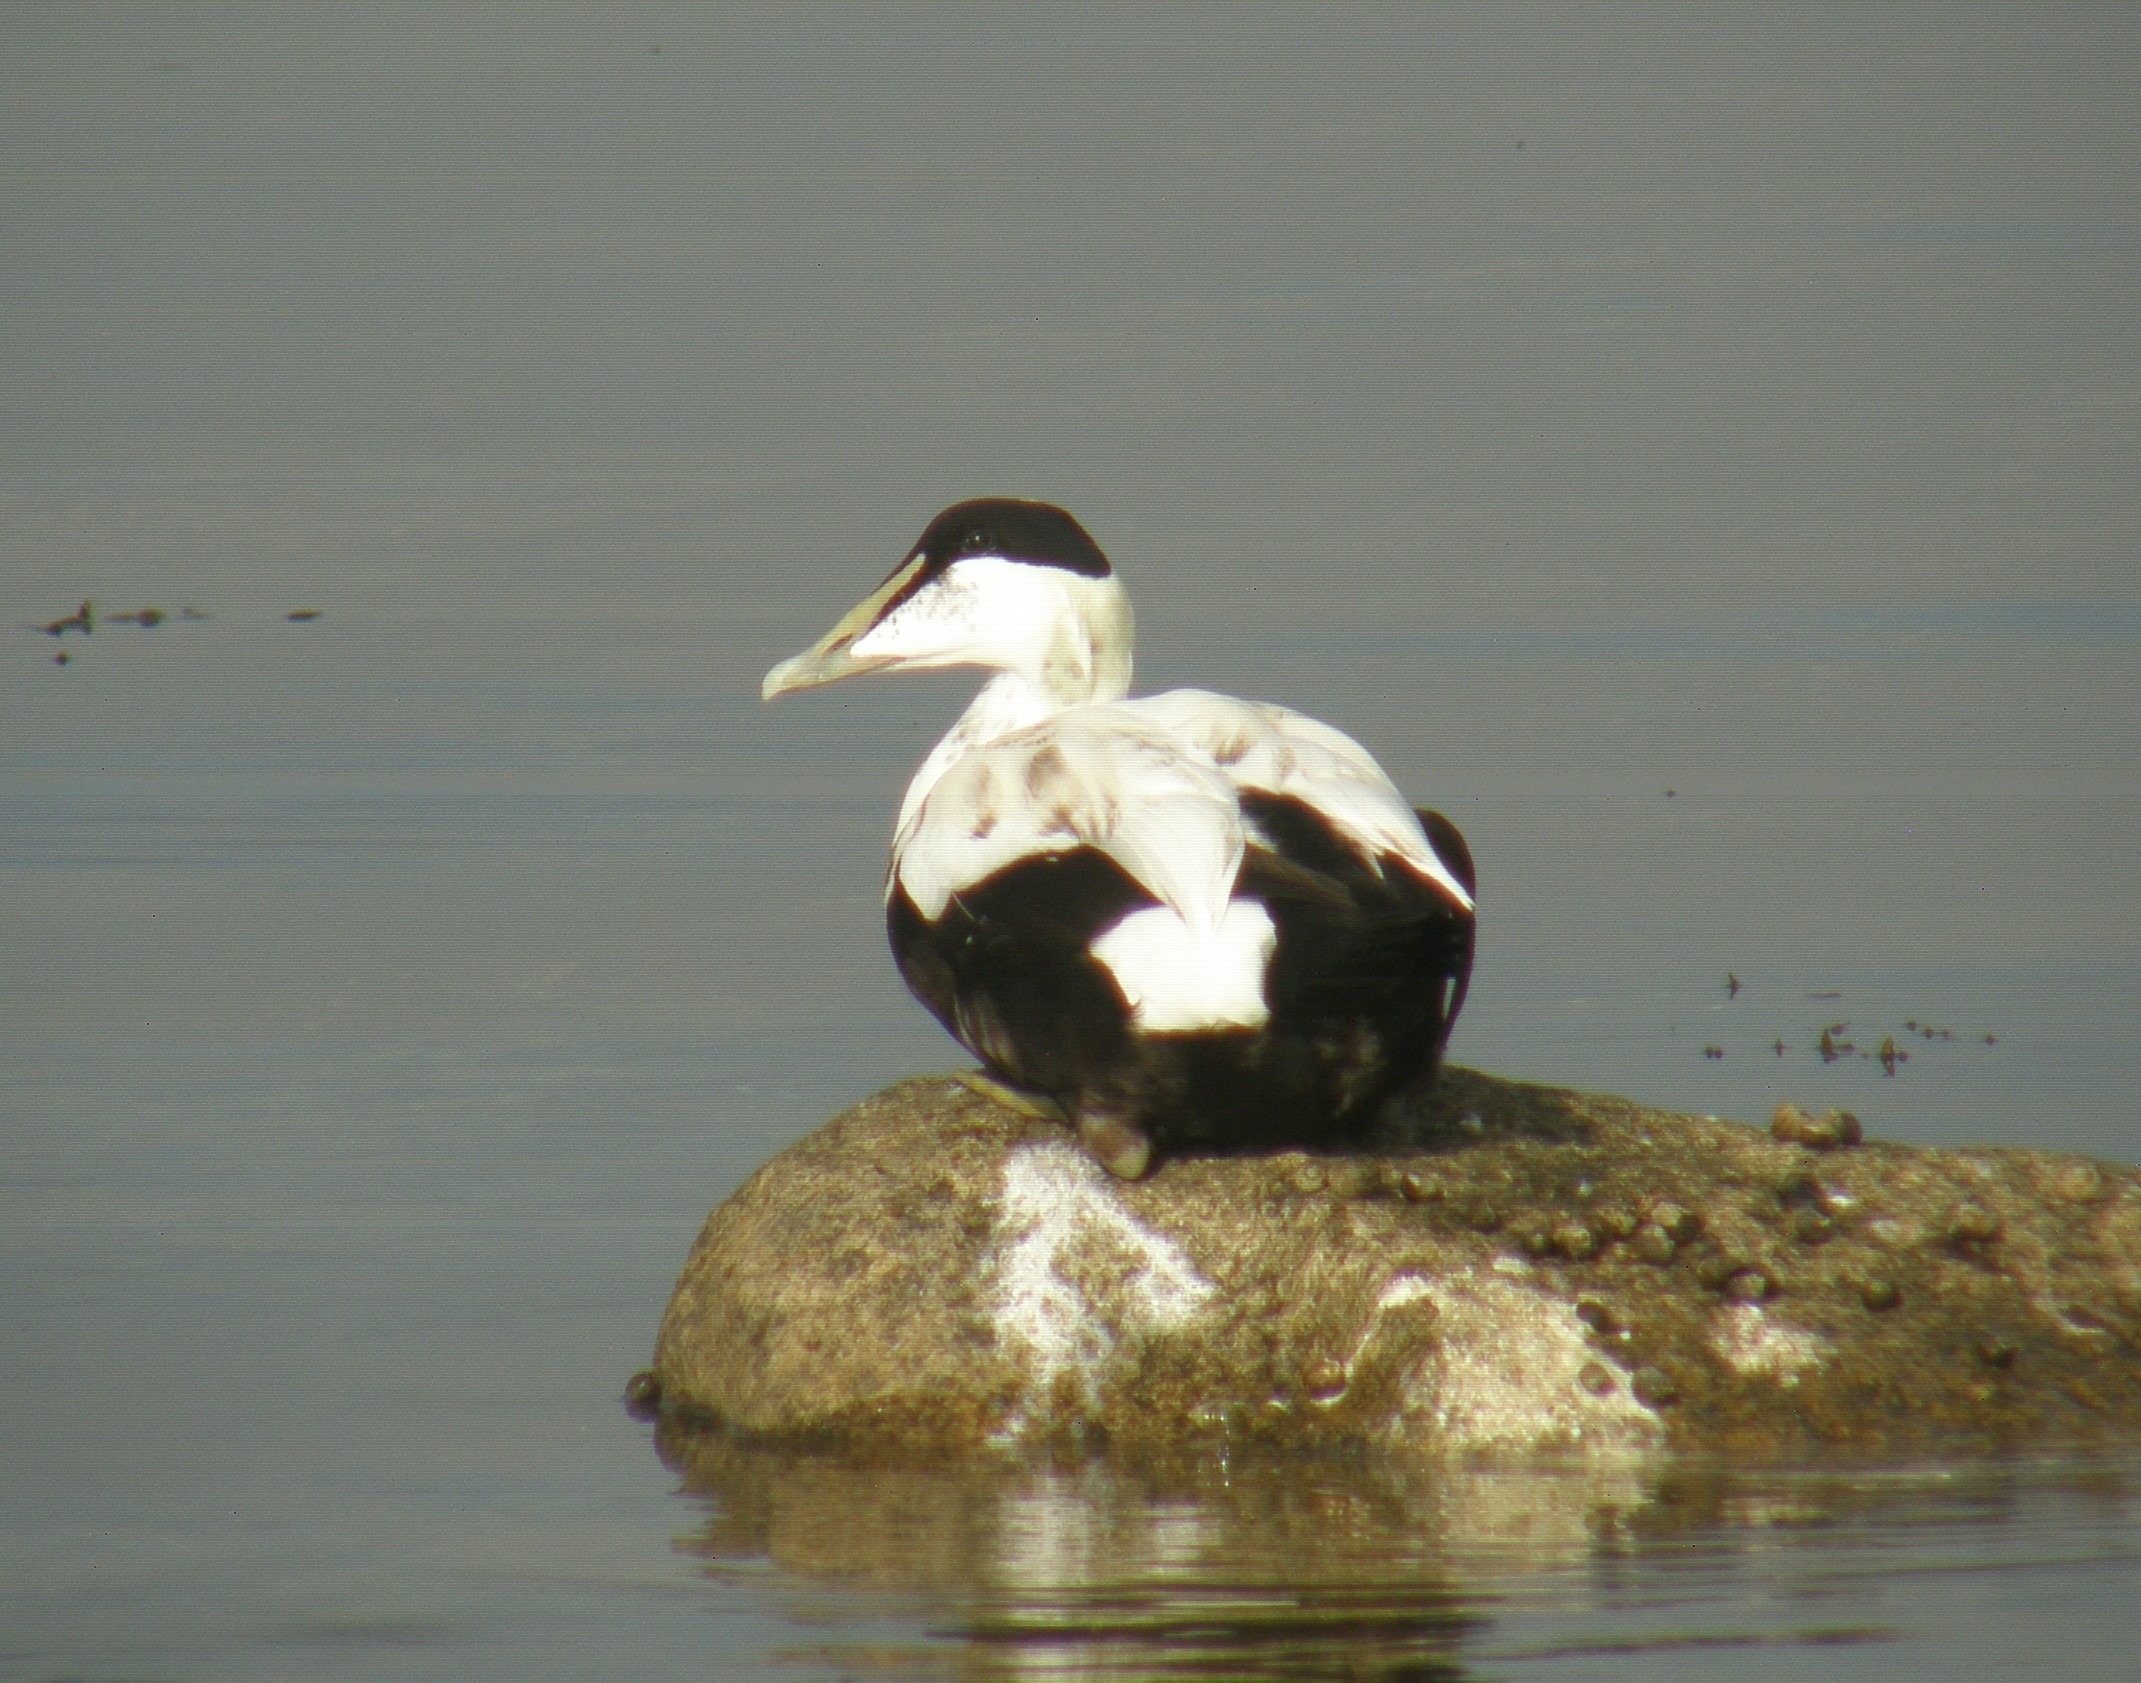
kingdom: Animalia
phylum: Chordata
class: Aves
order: Anseriformes
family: Anatidae
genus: Somateria
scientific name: Somateria mollissima
